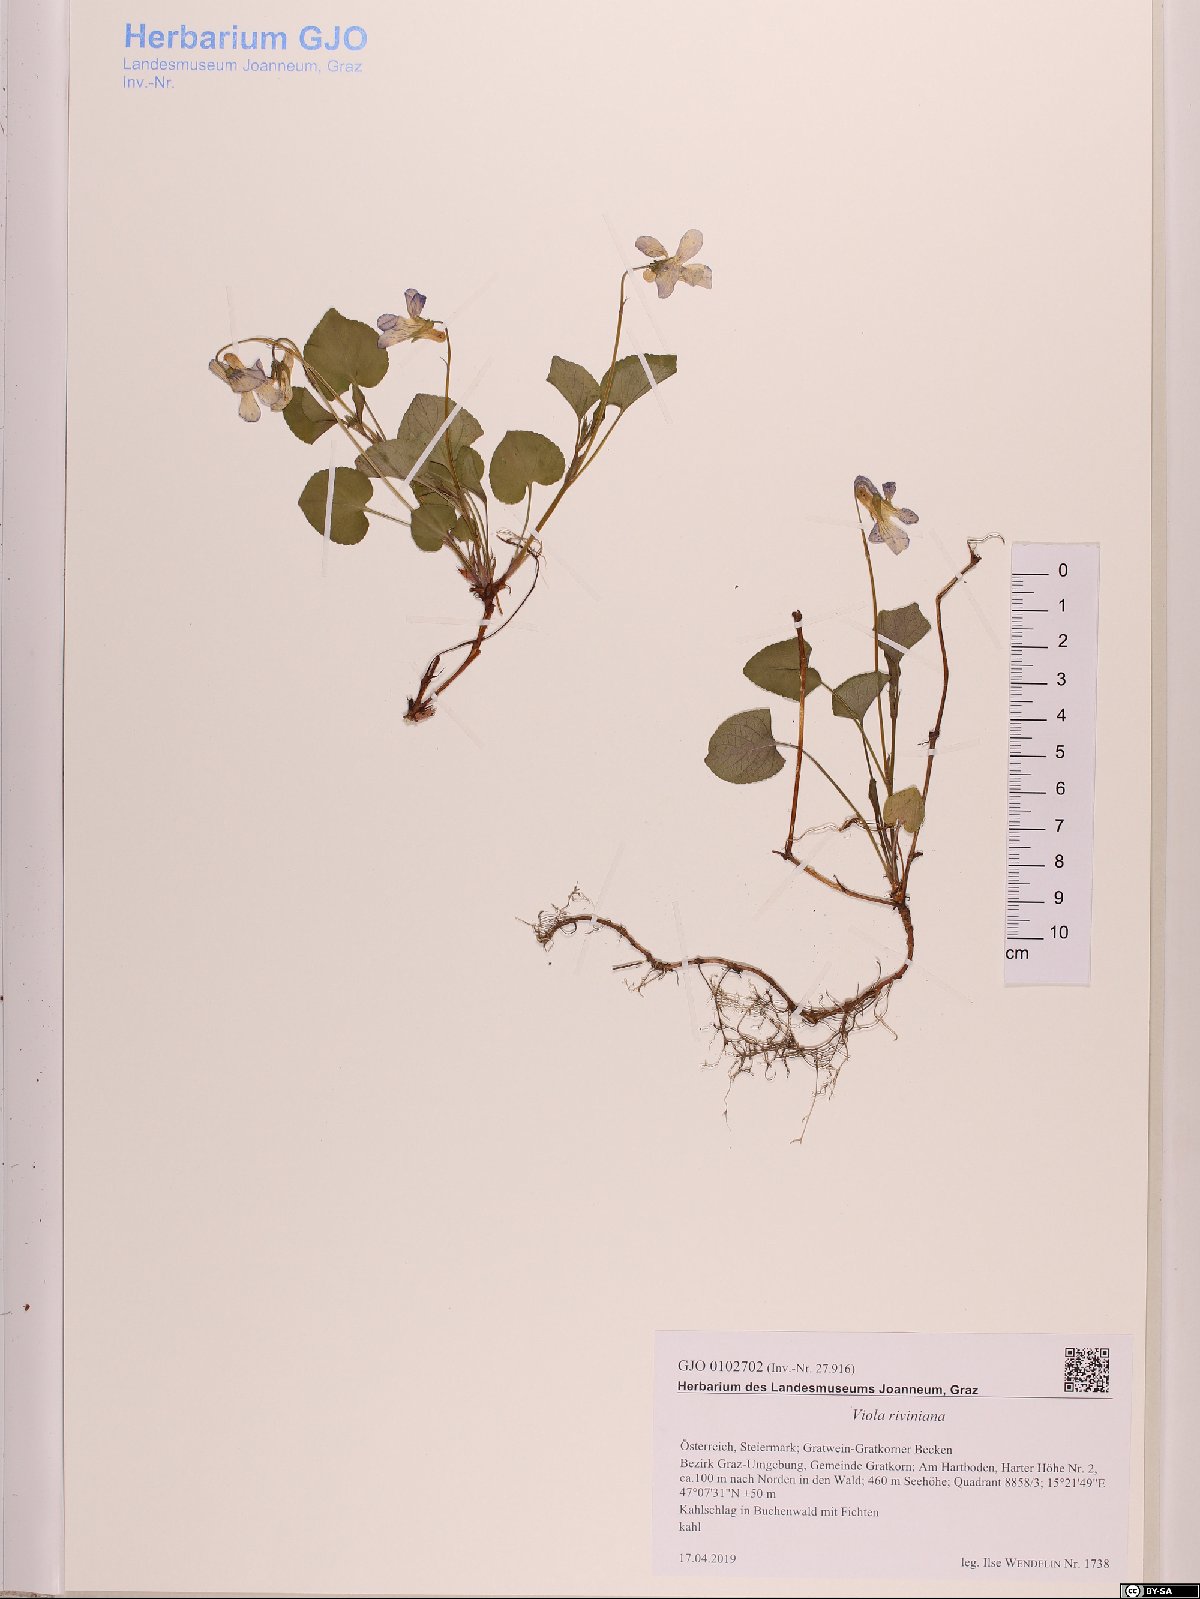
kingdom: Plantae
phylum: Tracheophyta
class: Magnoliopsida
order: Malpighiales
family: Violaceae
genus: Viola
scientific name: Viola riviniana
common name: Common dog-violet
